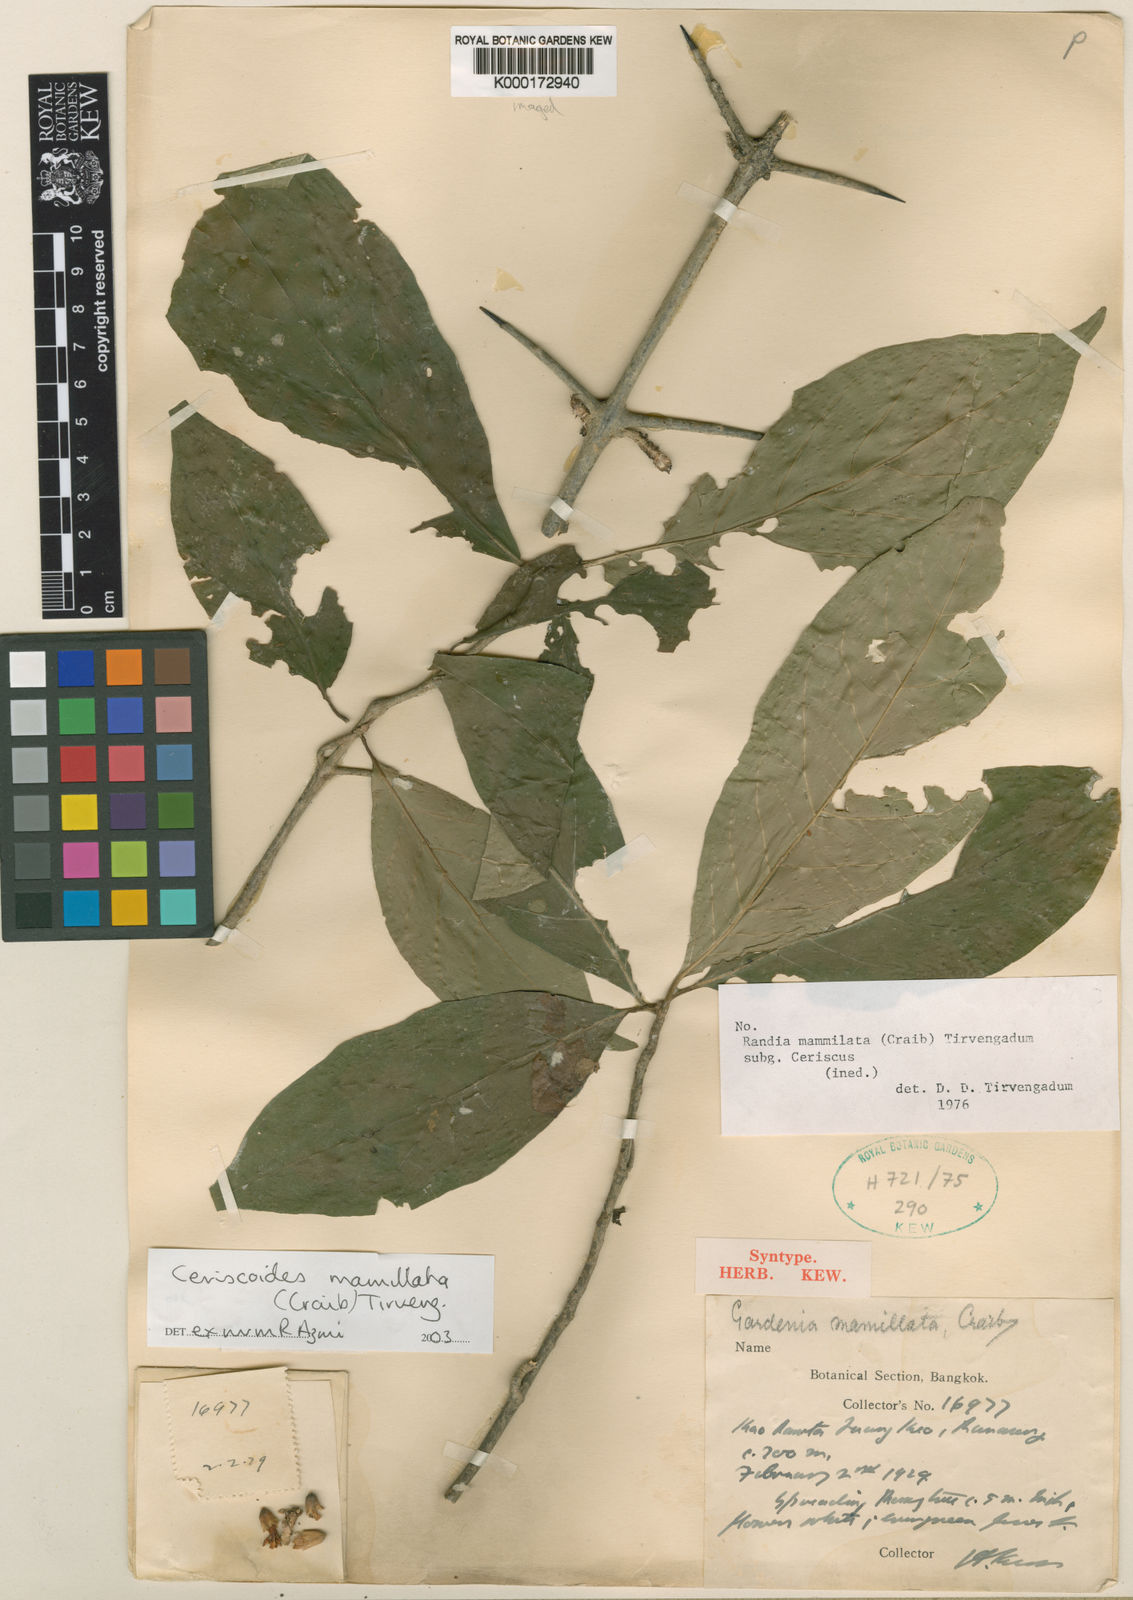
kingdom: Plantae
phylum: Tracheophyta
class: Magnoliopsida
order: Gentianales
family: Rubiaceae
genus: Ceriscoides
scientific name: Ceriscoides mamillata
